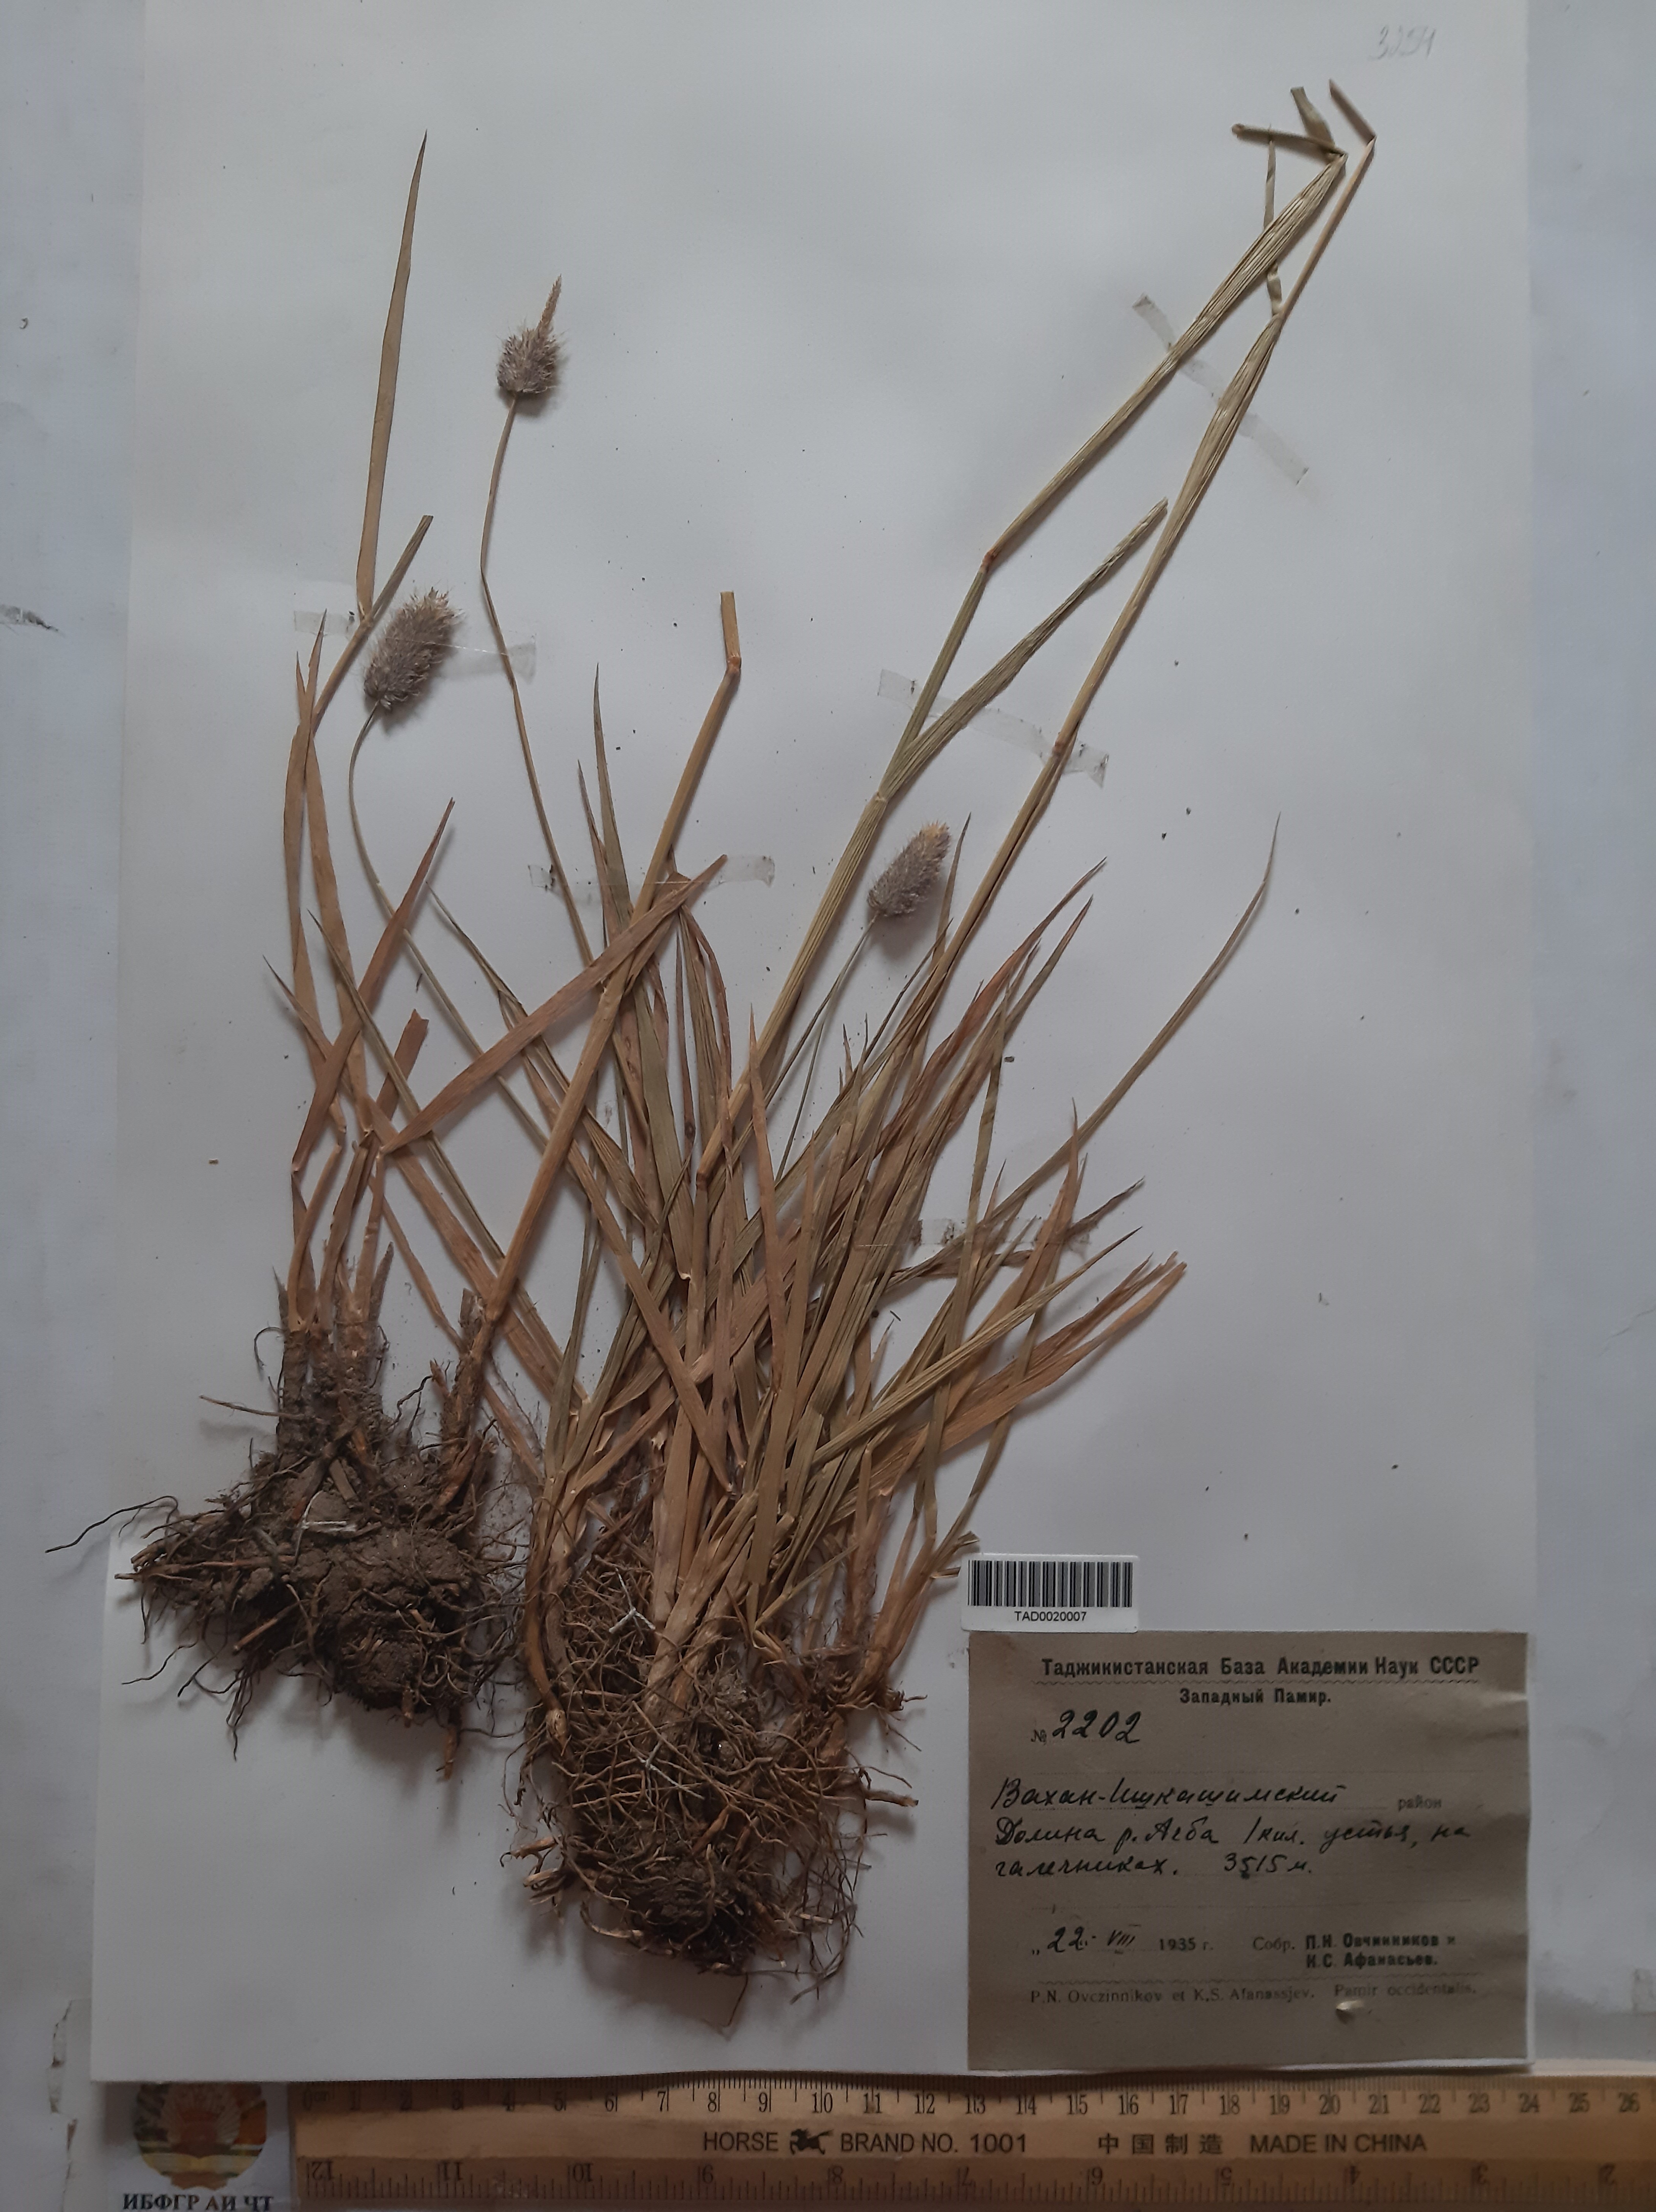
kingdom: Plantae
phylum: Tracheophyta
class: Liliopsida
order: Poales
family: Poaceae
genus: Alopecurus
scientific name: Alopecurus himalaicus
